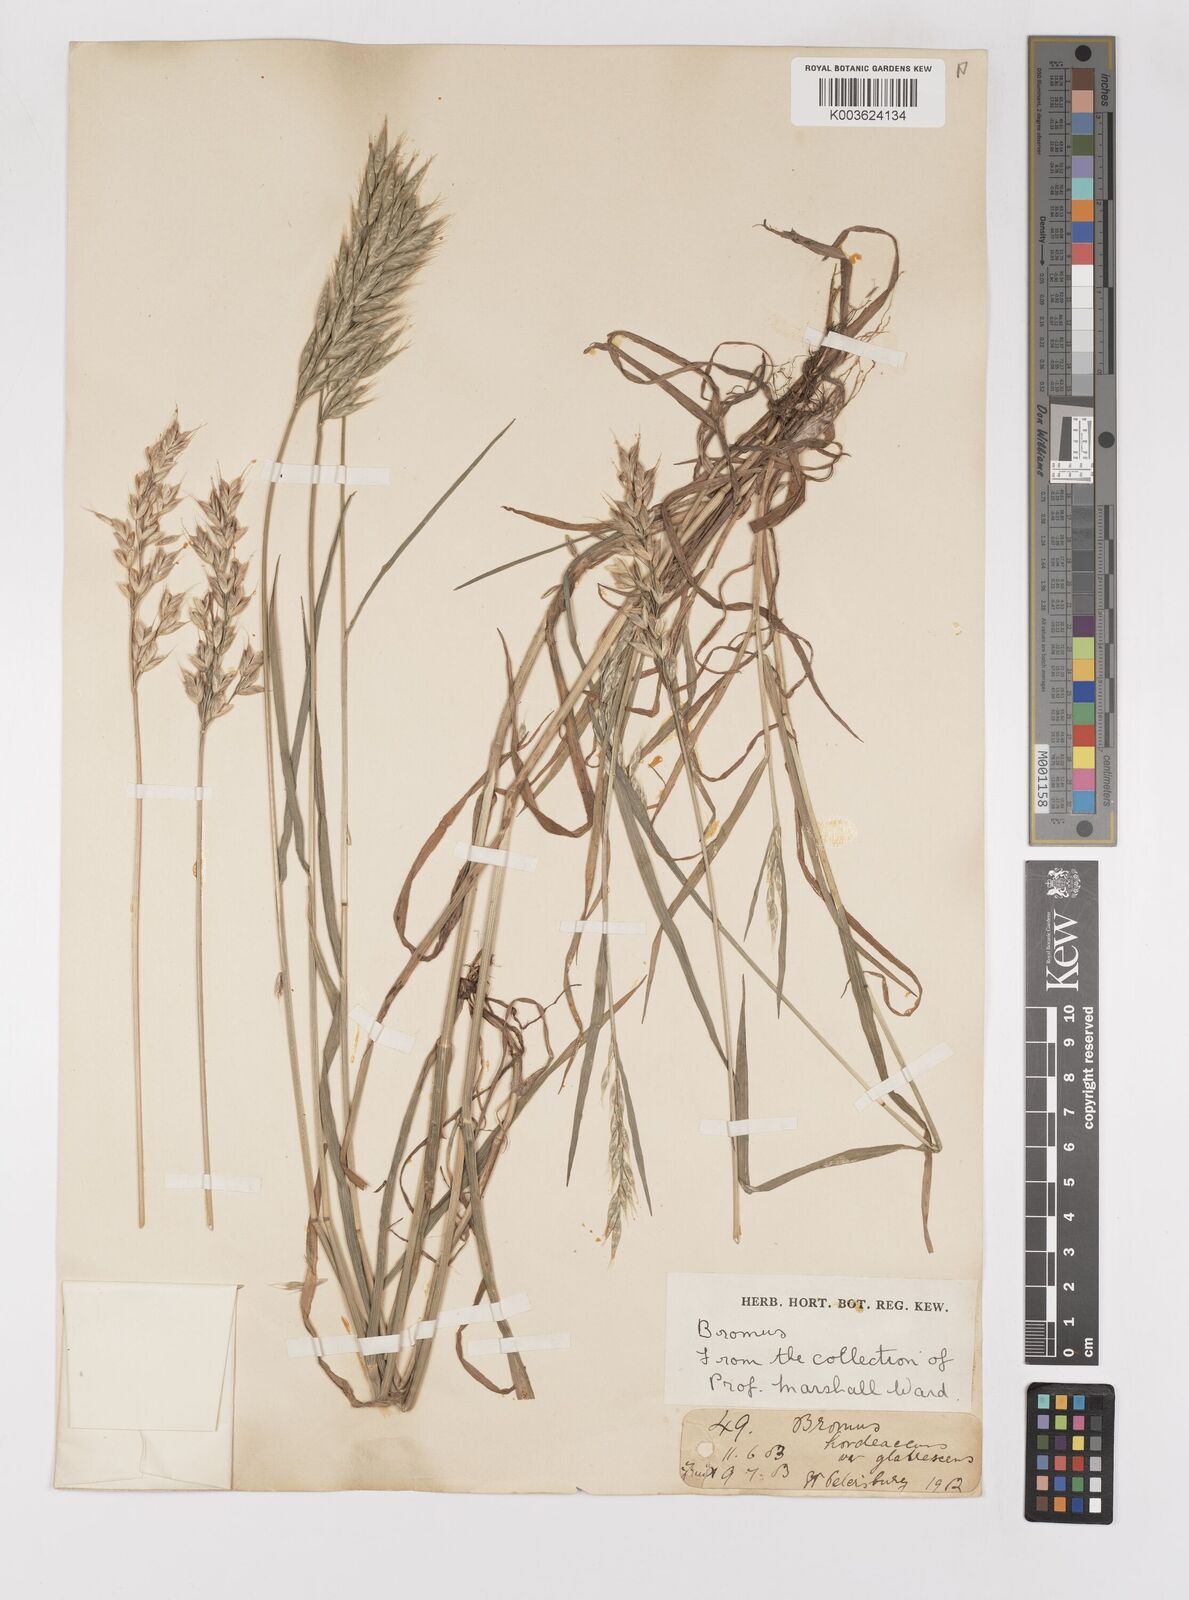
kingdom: Plantae
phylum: Tracheophyta
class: Liliopsida
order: Poales
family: Poaceae
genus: Bromus
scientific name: Bromus hordeaceus
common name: Soft brome
